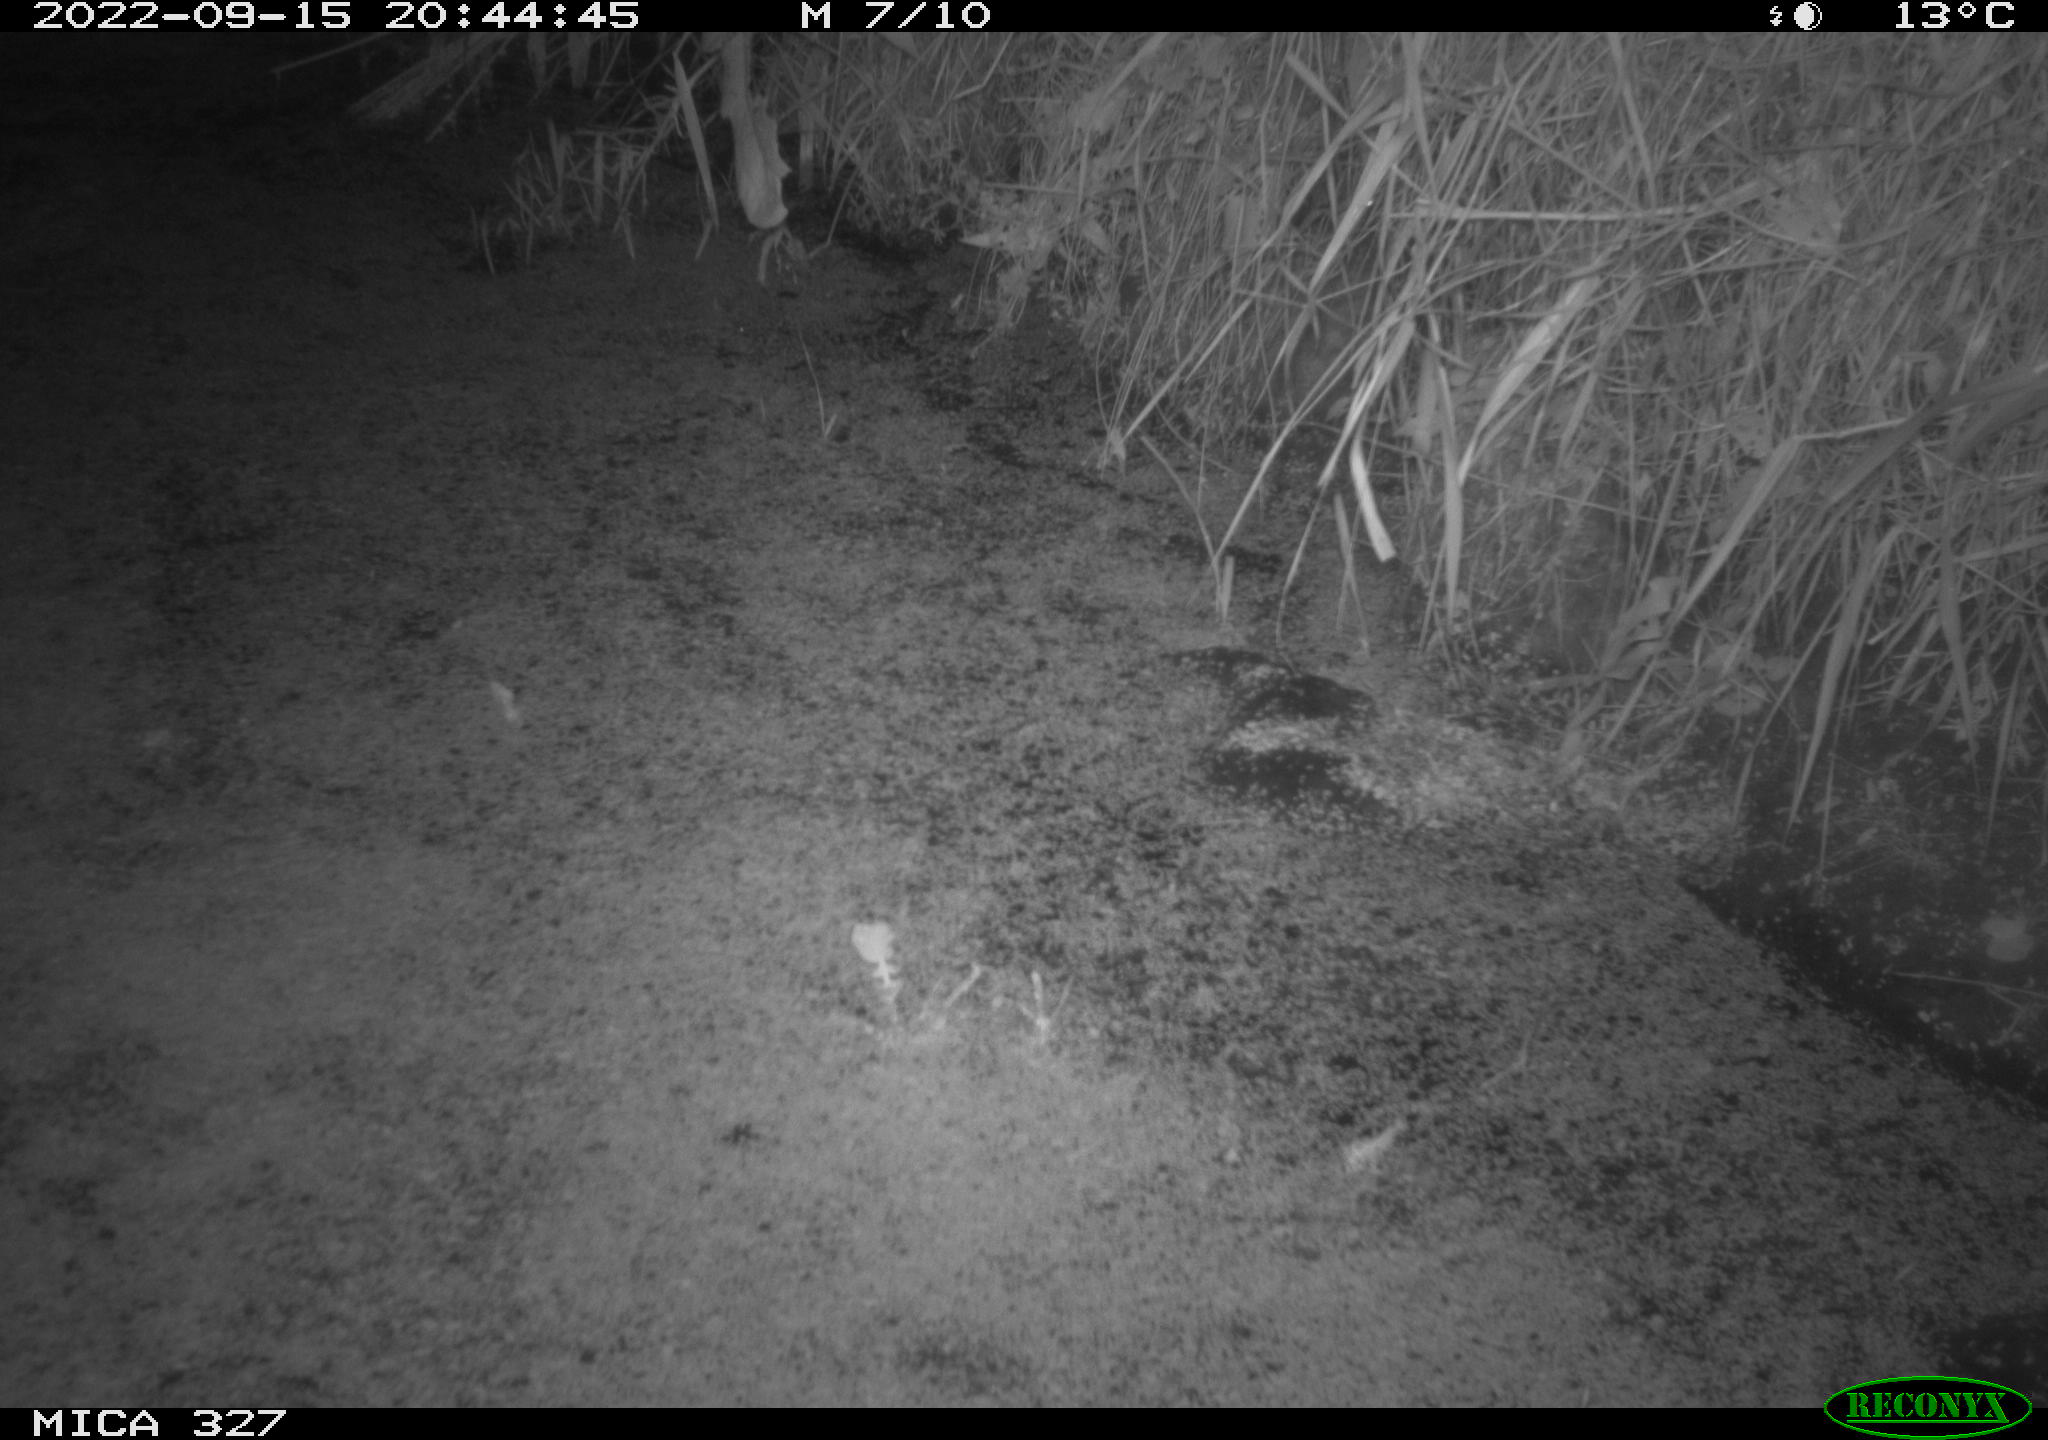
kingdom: Animalia
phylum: Chordata
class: Mammalia
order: Rodentia
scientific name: Rodentia
